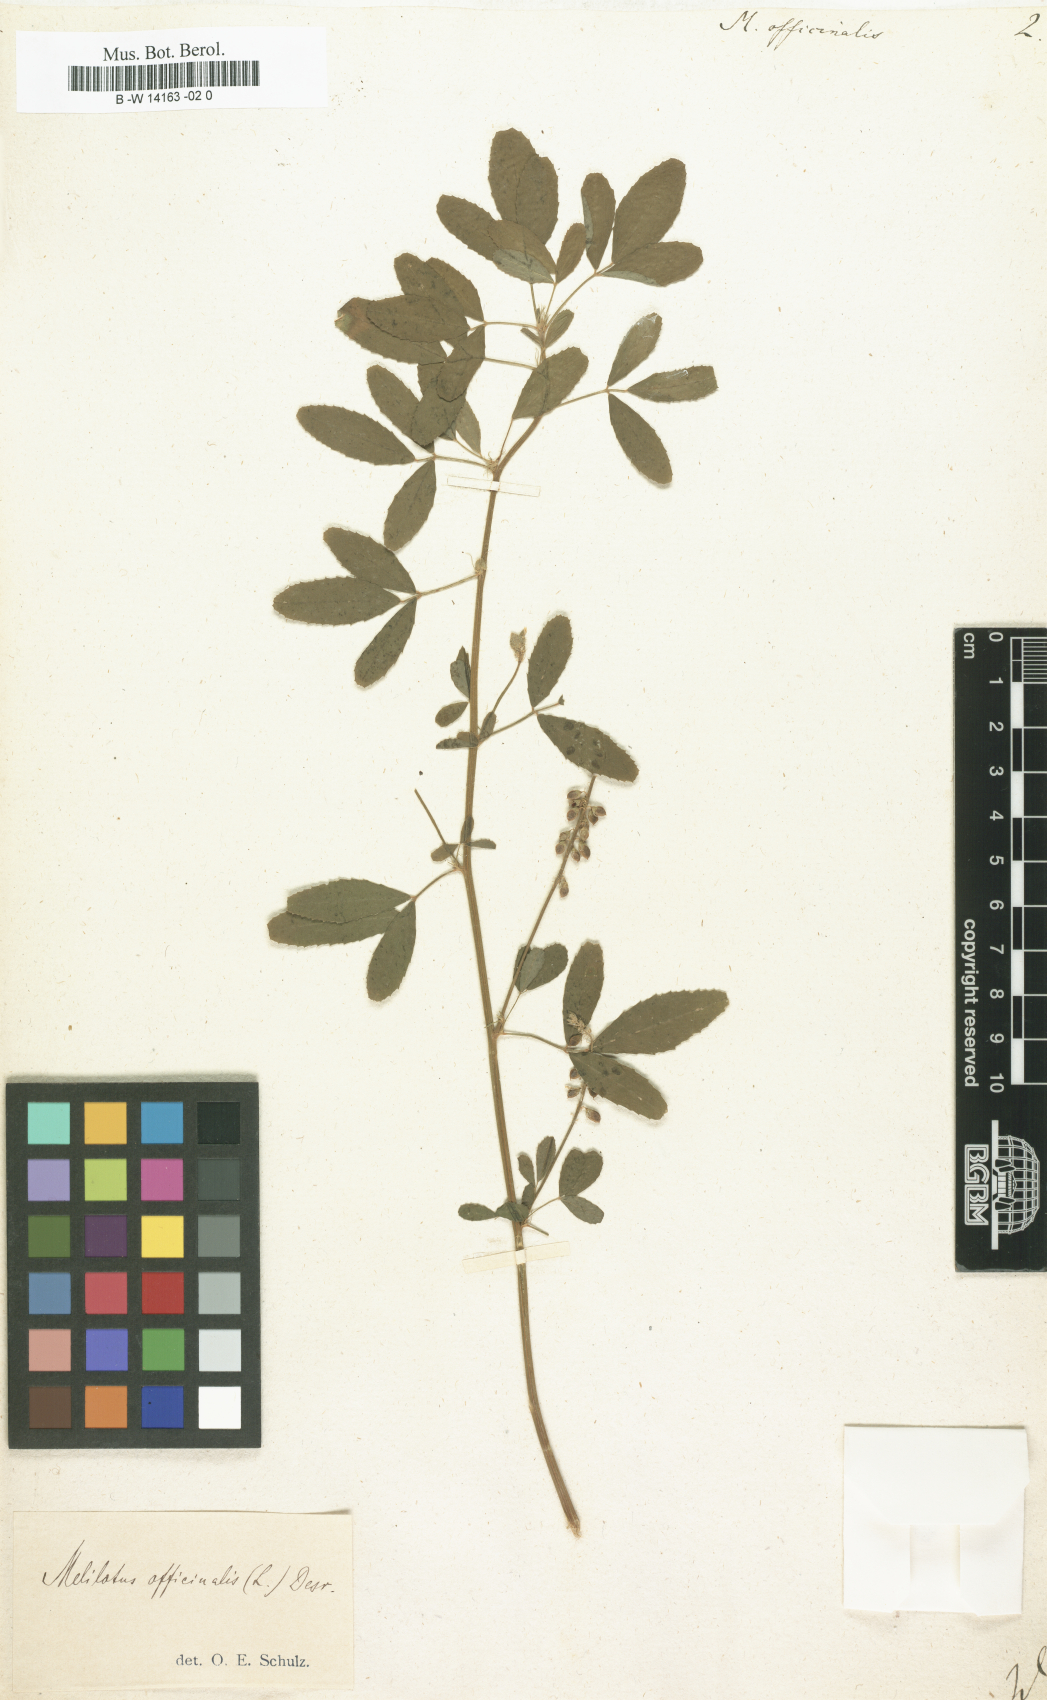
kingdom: Plantae
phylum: Tracheophyta
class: Magnoliopsida
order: Fabales
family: Fabaceae
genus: Melilotus
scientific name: Melilotus officinalis
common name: Sweetclover
